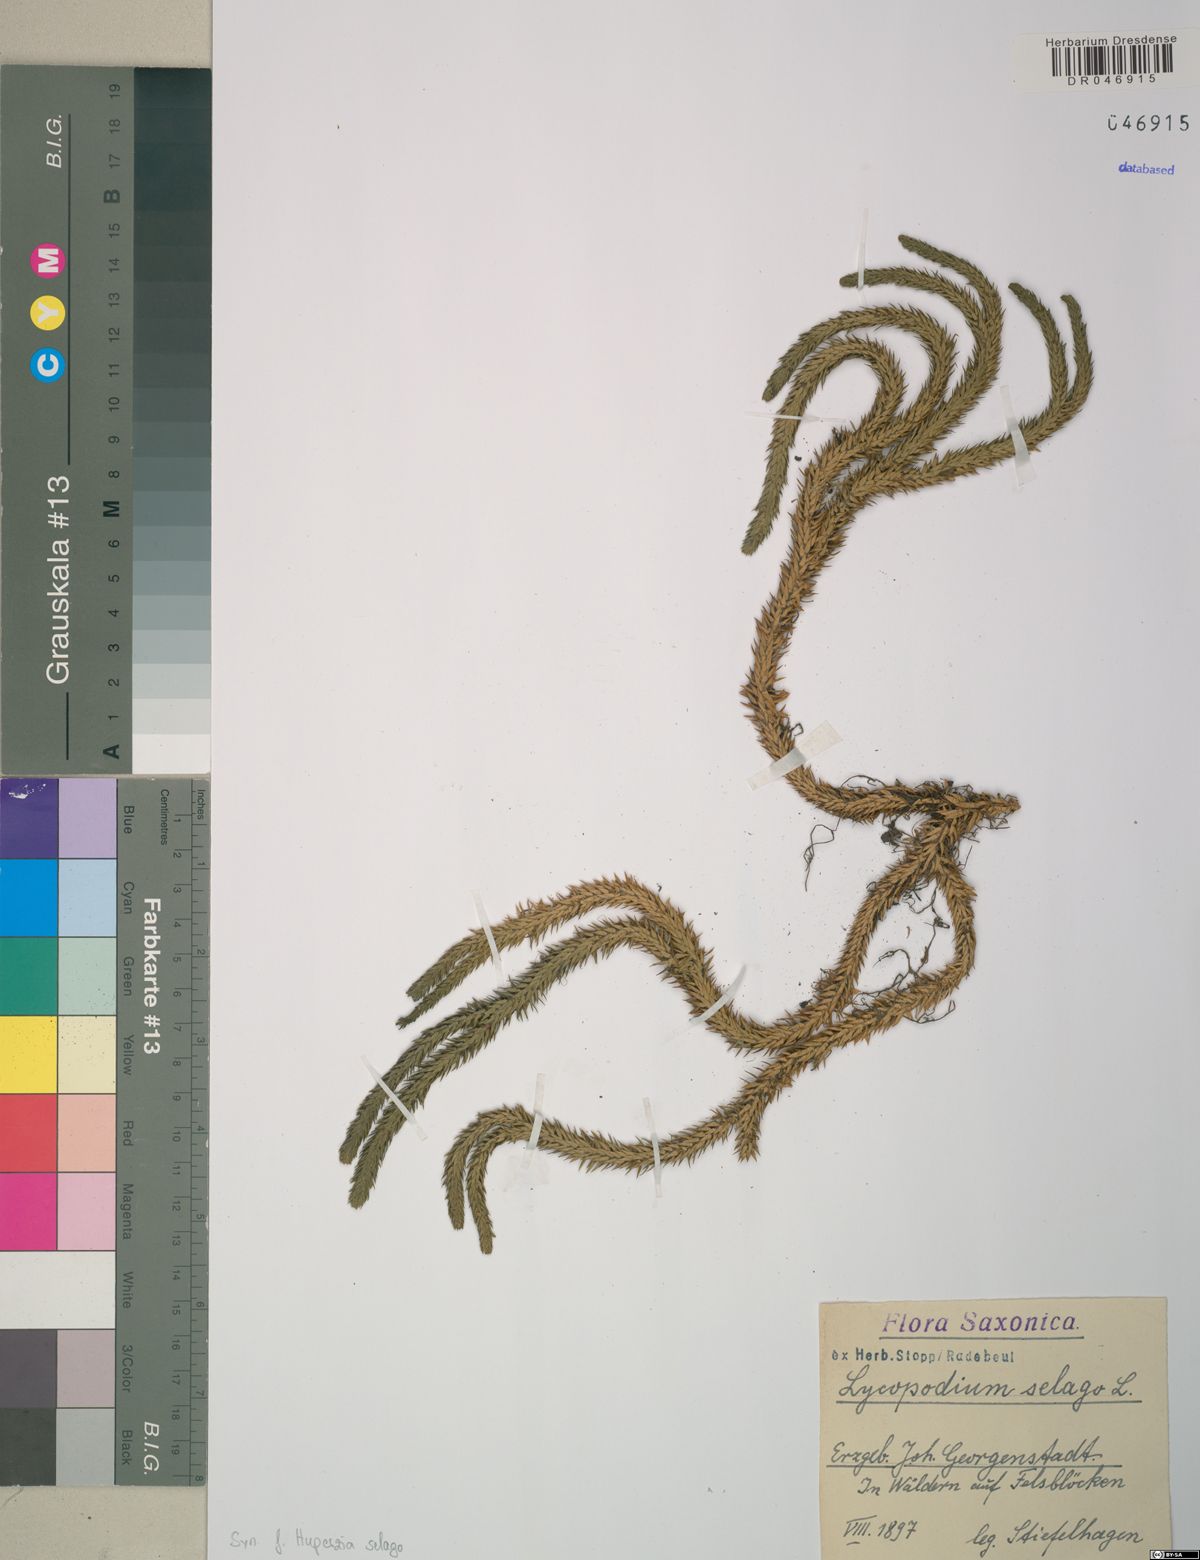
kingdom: Plantae
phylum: Tracheophyta
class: Lycopodiopsida
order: Lycopodiales
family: Lycopodiaceae
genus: Huperzia
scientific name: Huperzia selago
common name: Northern firmoss
